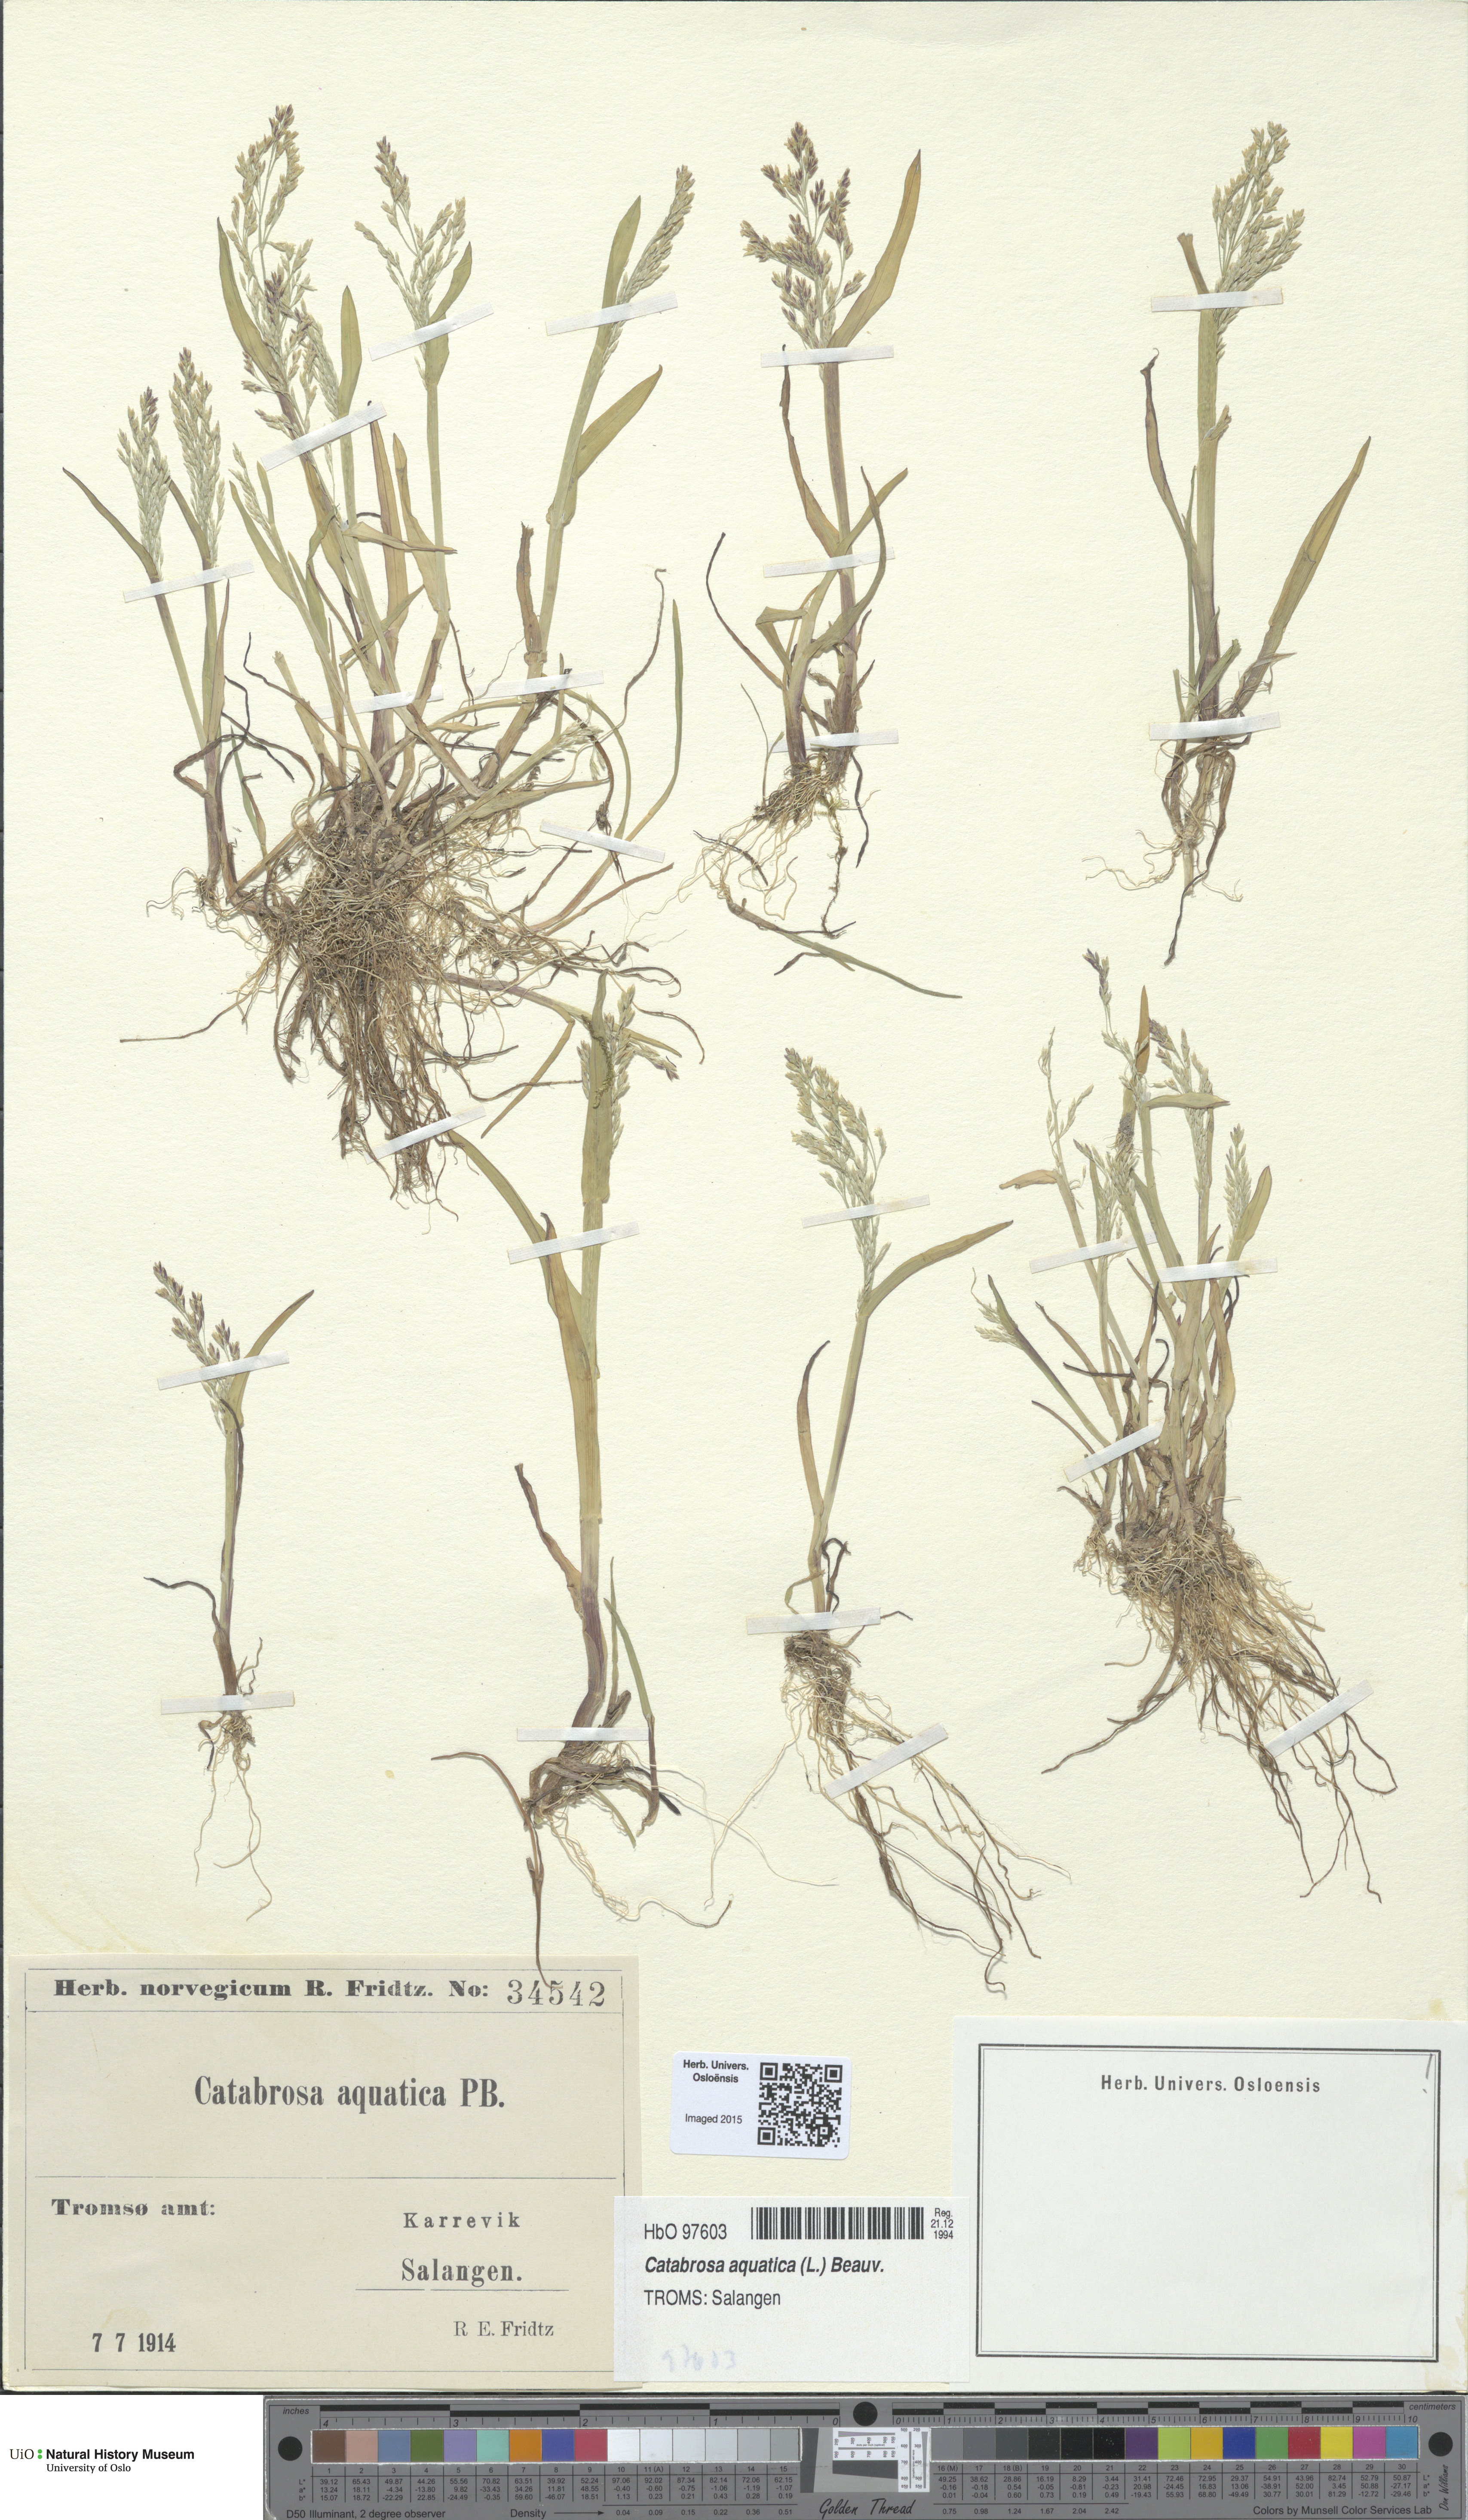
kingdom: Plantae
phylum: Tracheophyta
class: Liliopsida
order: Poales
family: Poaceae
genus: Catabrosa
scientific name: Catabrosa aquatica
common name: Whorl-grass
